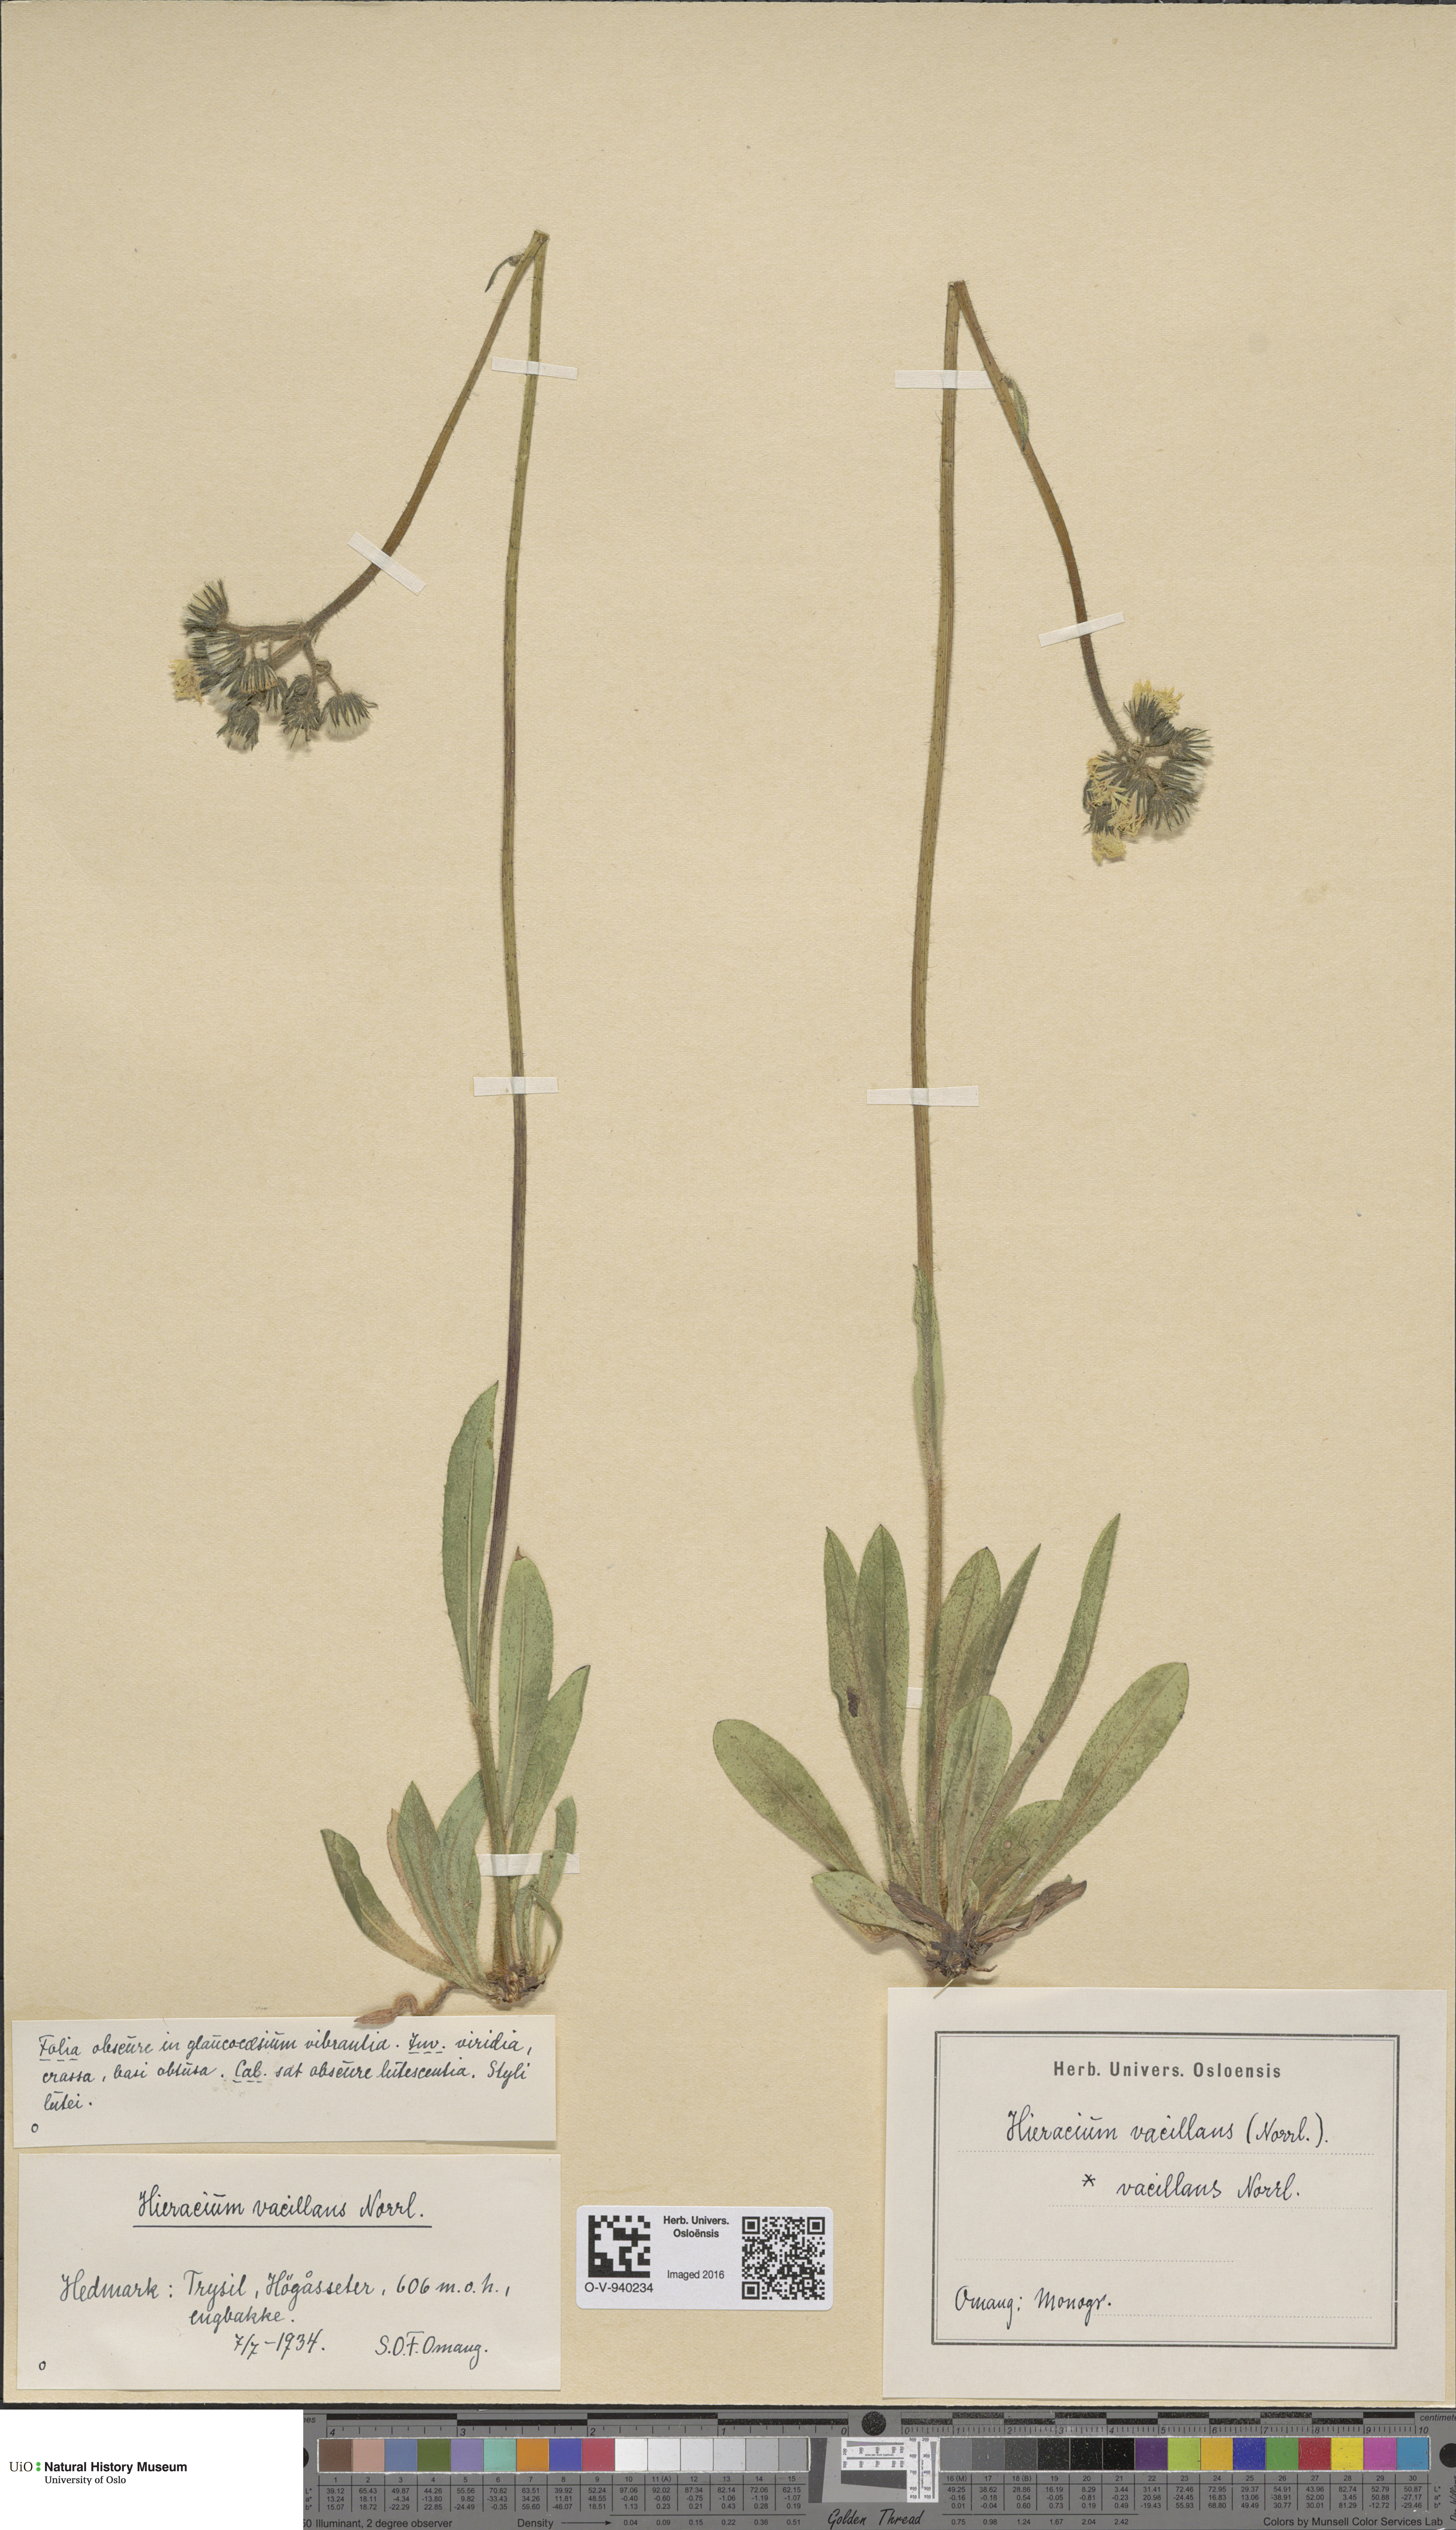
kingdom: Plantae
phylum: Tracheophyta
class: Magnoliopsida
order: Asterales
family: Asteraceae
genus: Pilosella
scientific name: Pilosella glomerata
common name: Queen devil hawkweed
